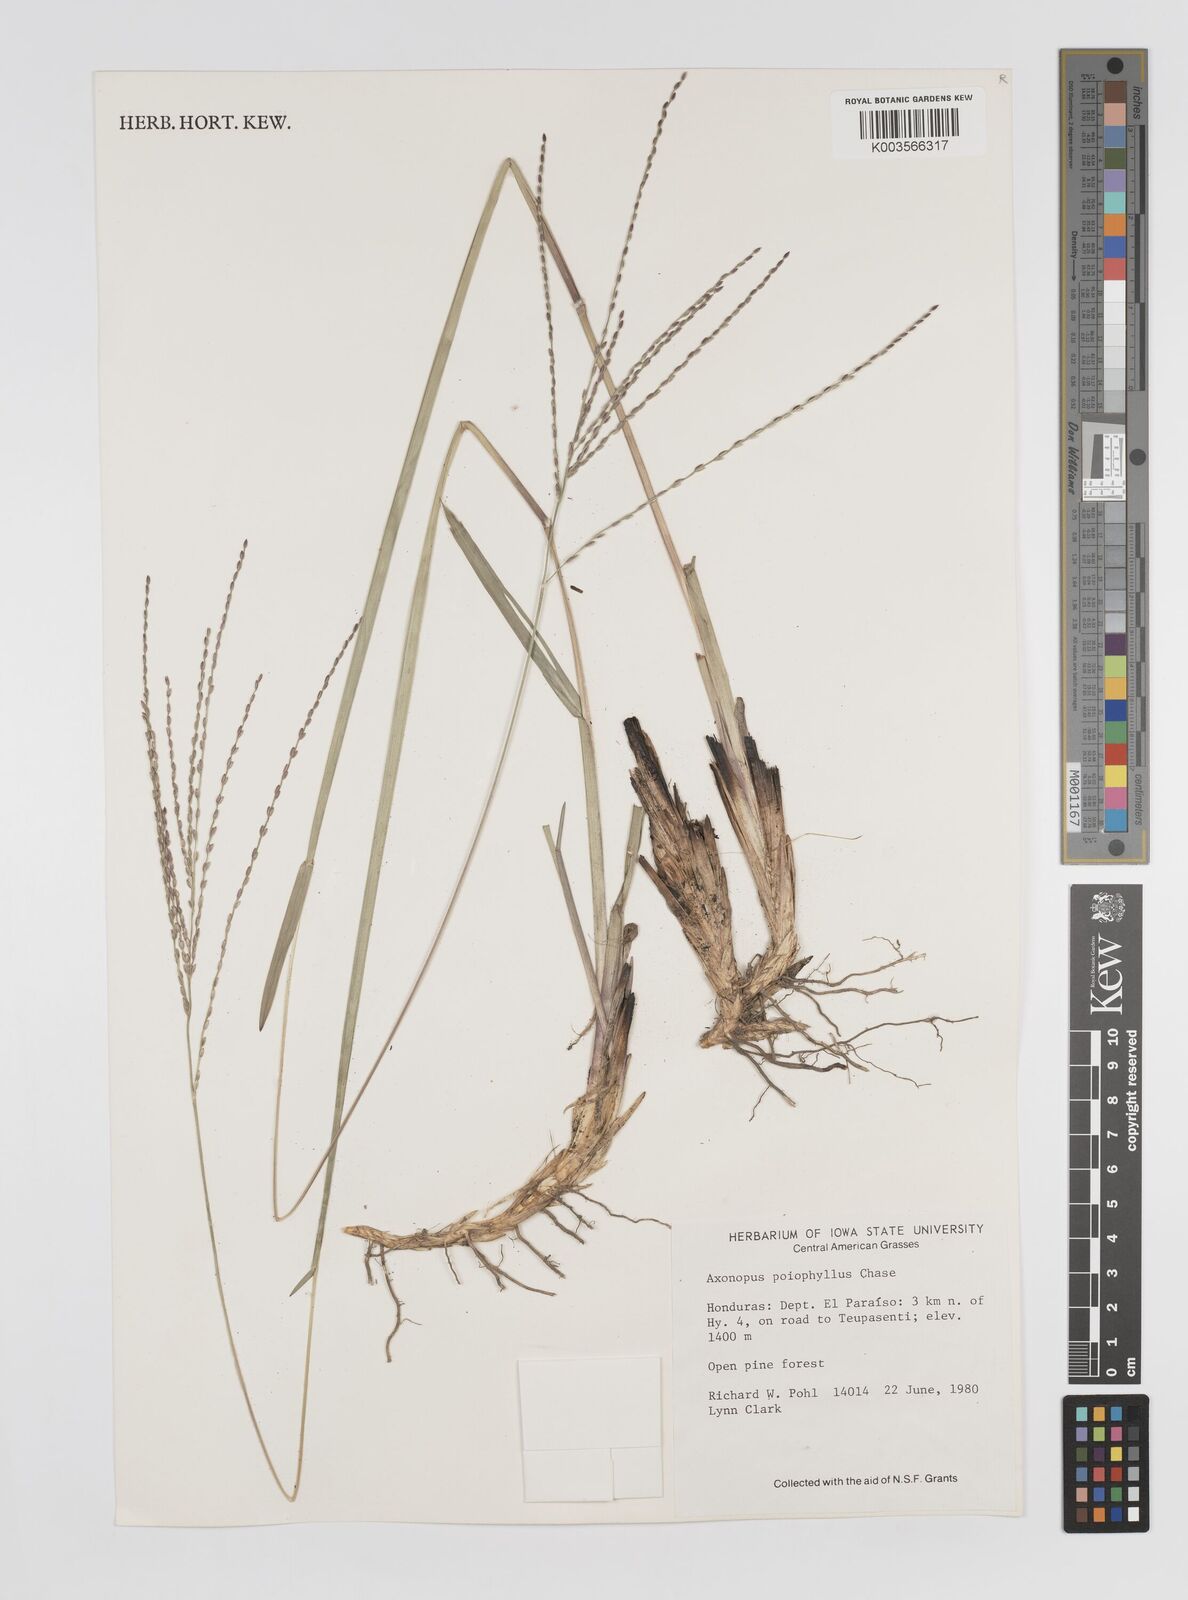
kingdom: Plantae
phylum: Tracheophyta
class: Liliopsida
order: Poales
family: Poaceae
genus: Axonopus
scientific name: Axonopus
